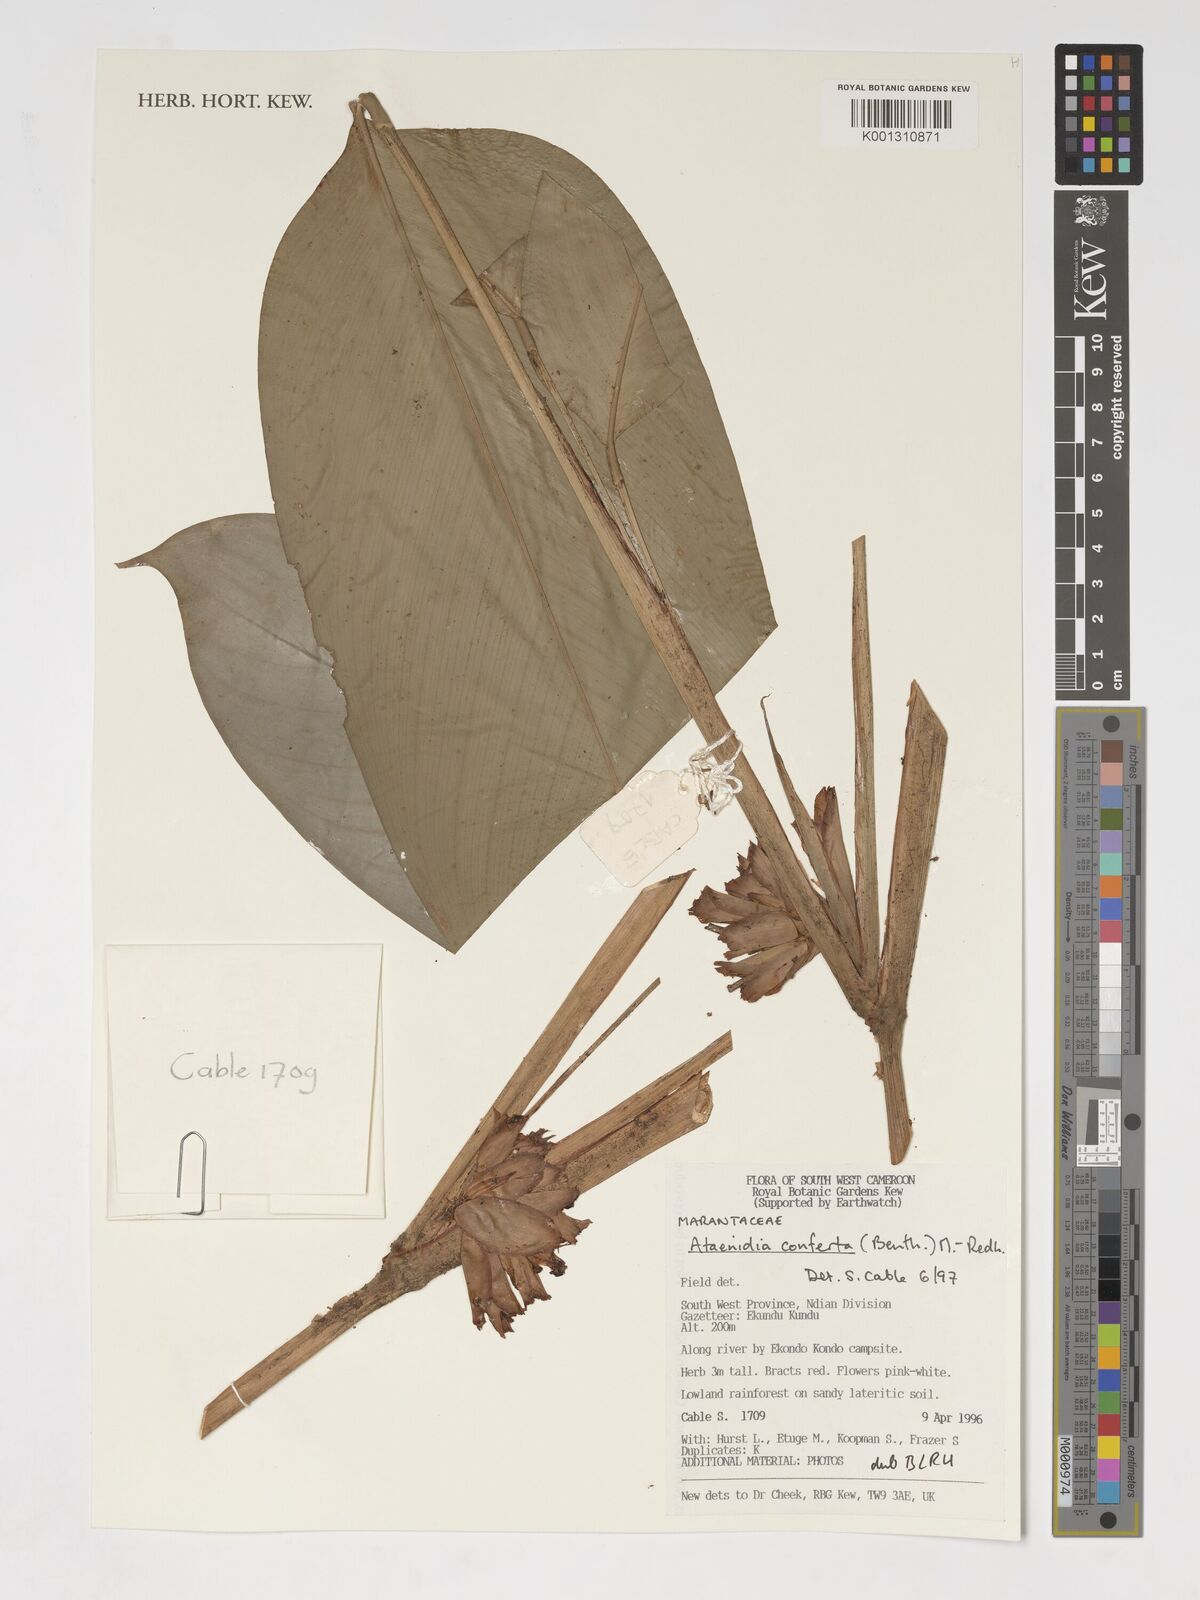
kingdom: Plantae
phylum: Tracheophyta
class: Liliopsida
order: Zingiberales
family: Marantaceae
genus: Marantochloa
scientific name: Marantochloa conferta
